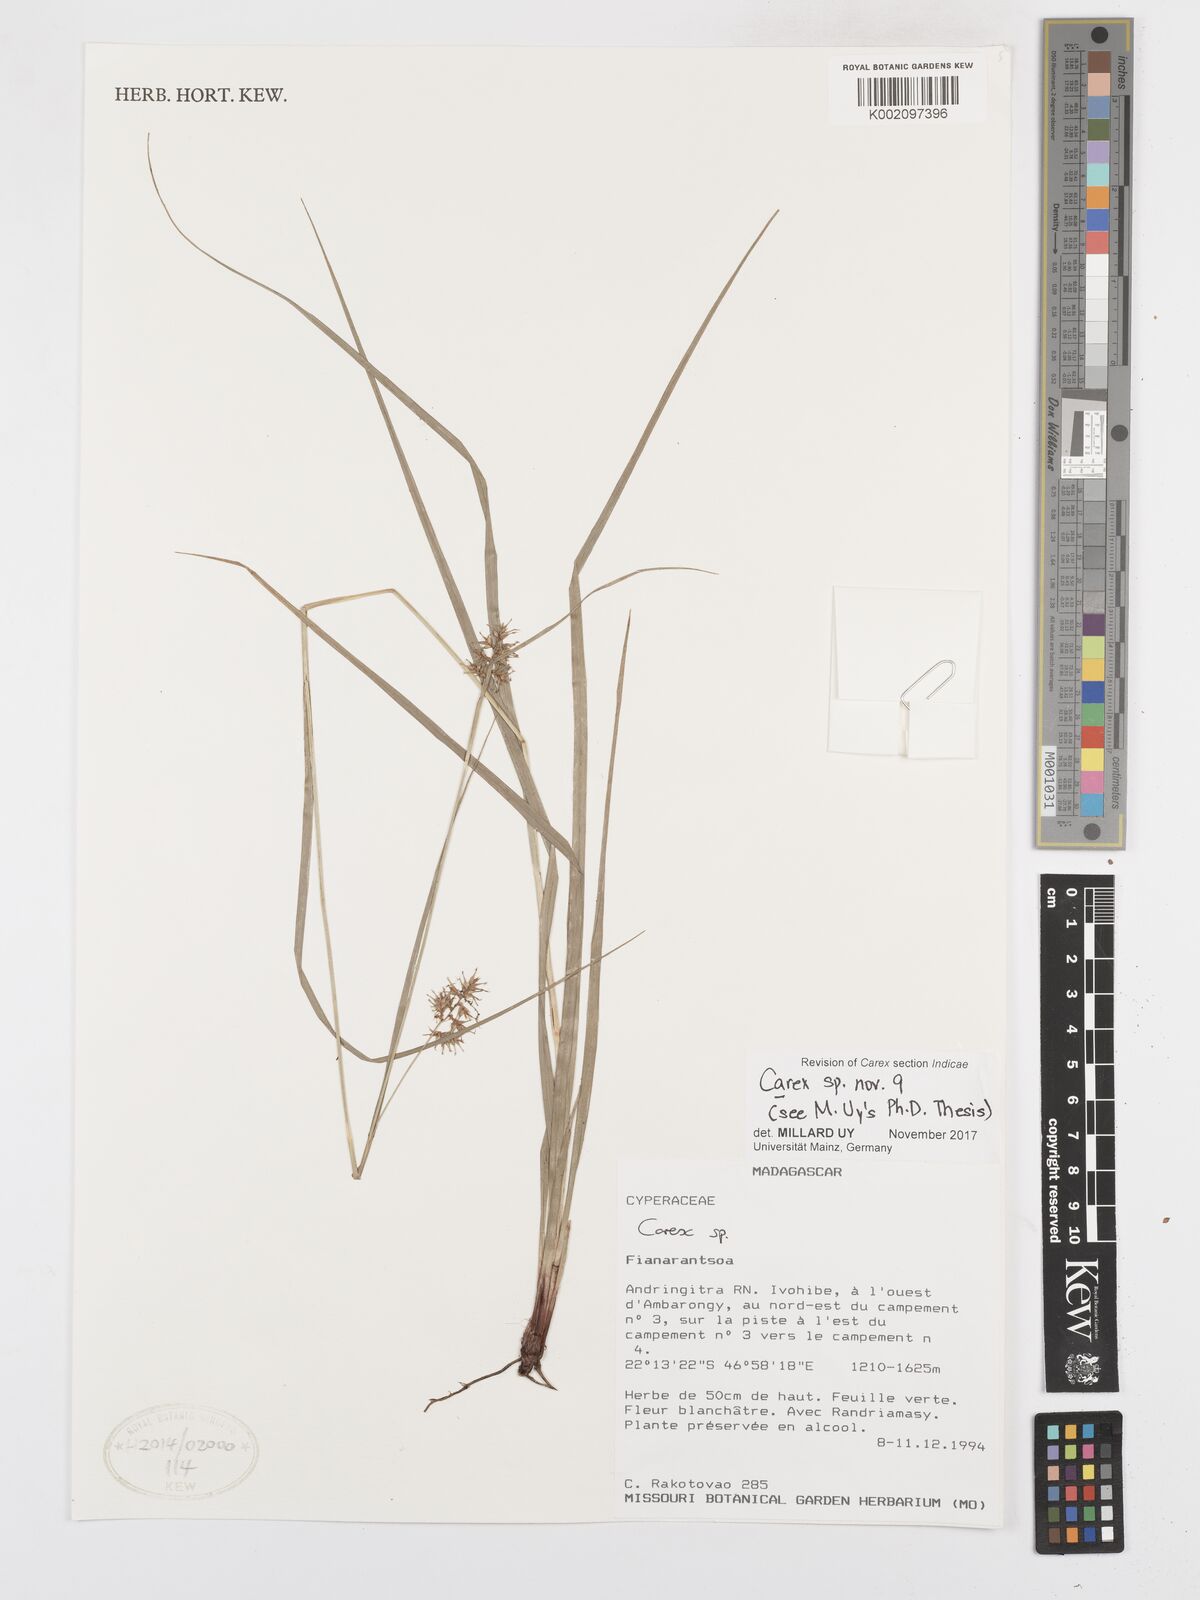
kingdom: Plantae
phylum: Tracheophyta
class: Liliopsida
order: Poales
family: Cyperaceae
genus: Carex
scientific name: Carex
